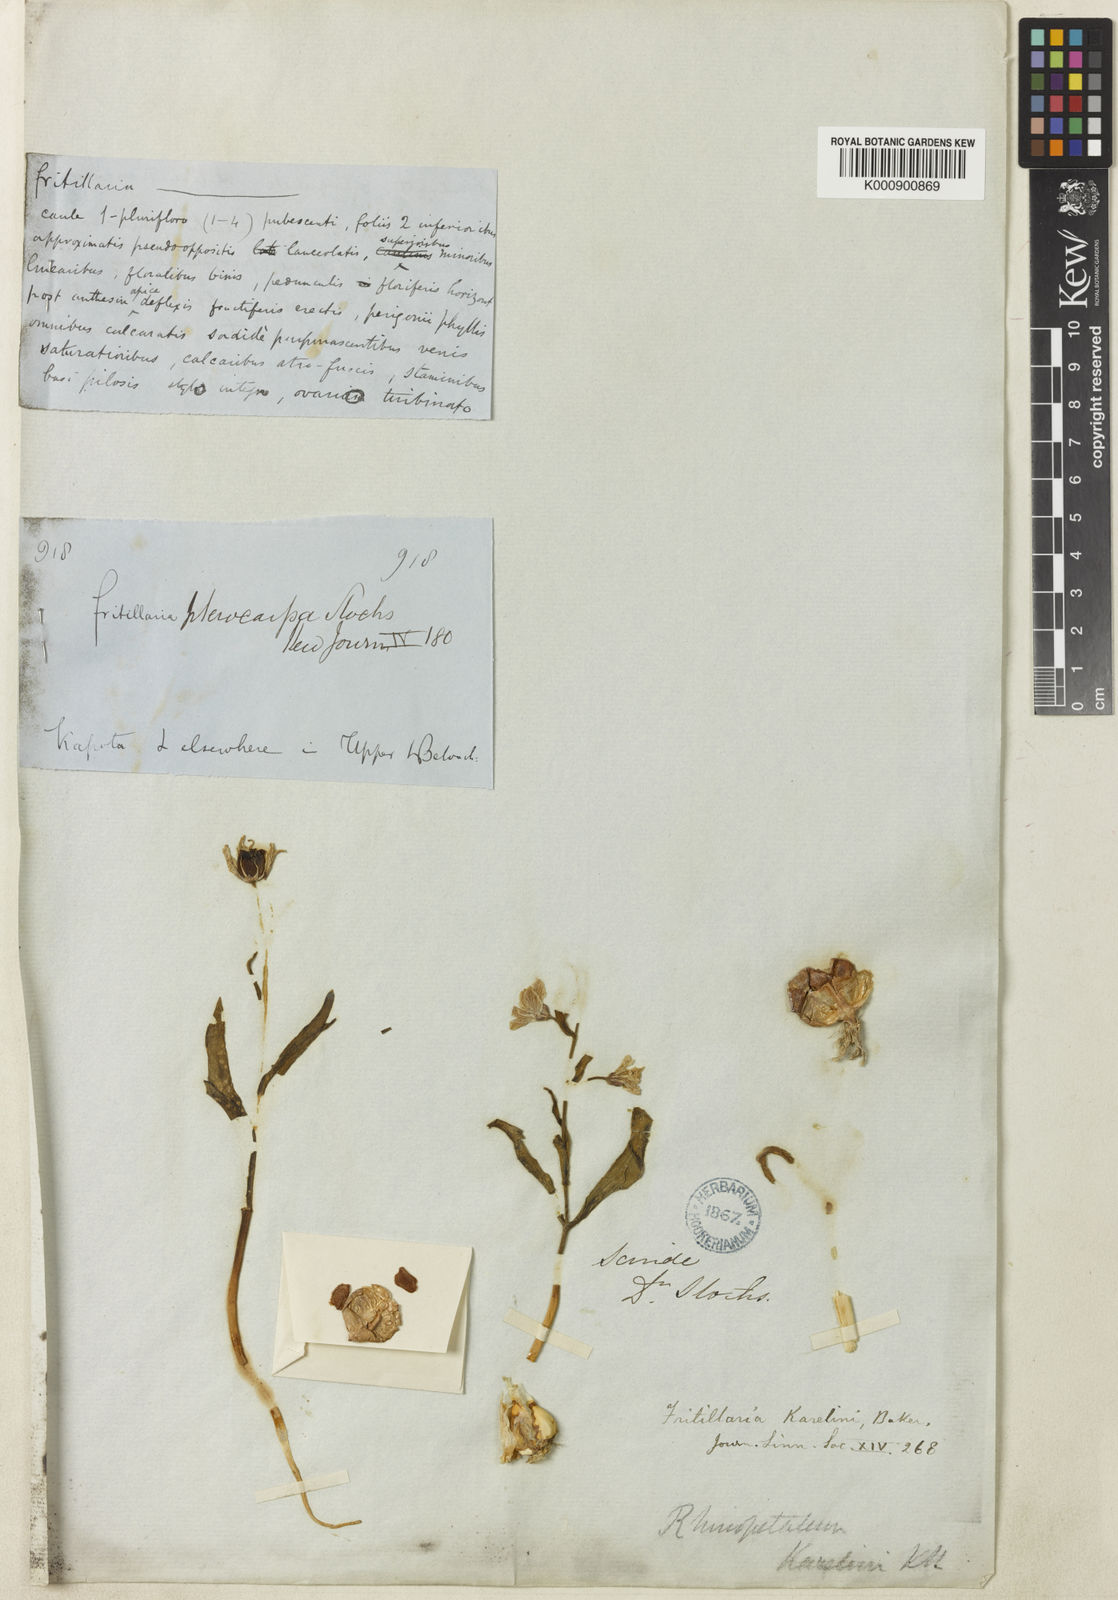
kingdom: Plantae
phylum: Tracheophyta
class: Liliopsida
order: Liliales
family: Liliaceae
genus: Fritillaria
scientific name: Fritillaria karelinii
